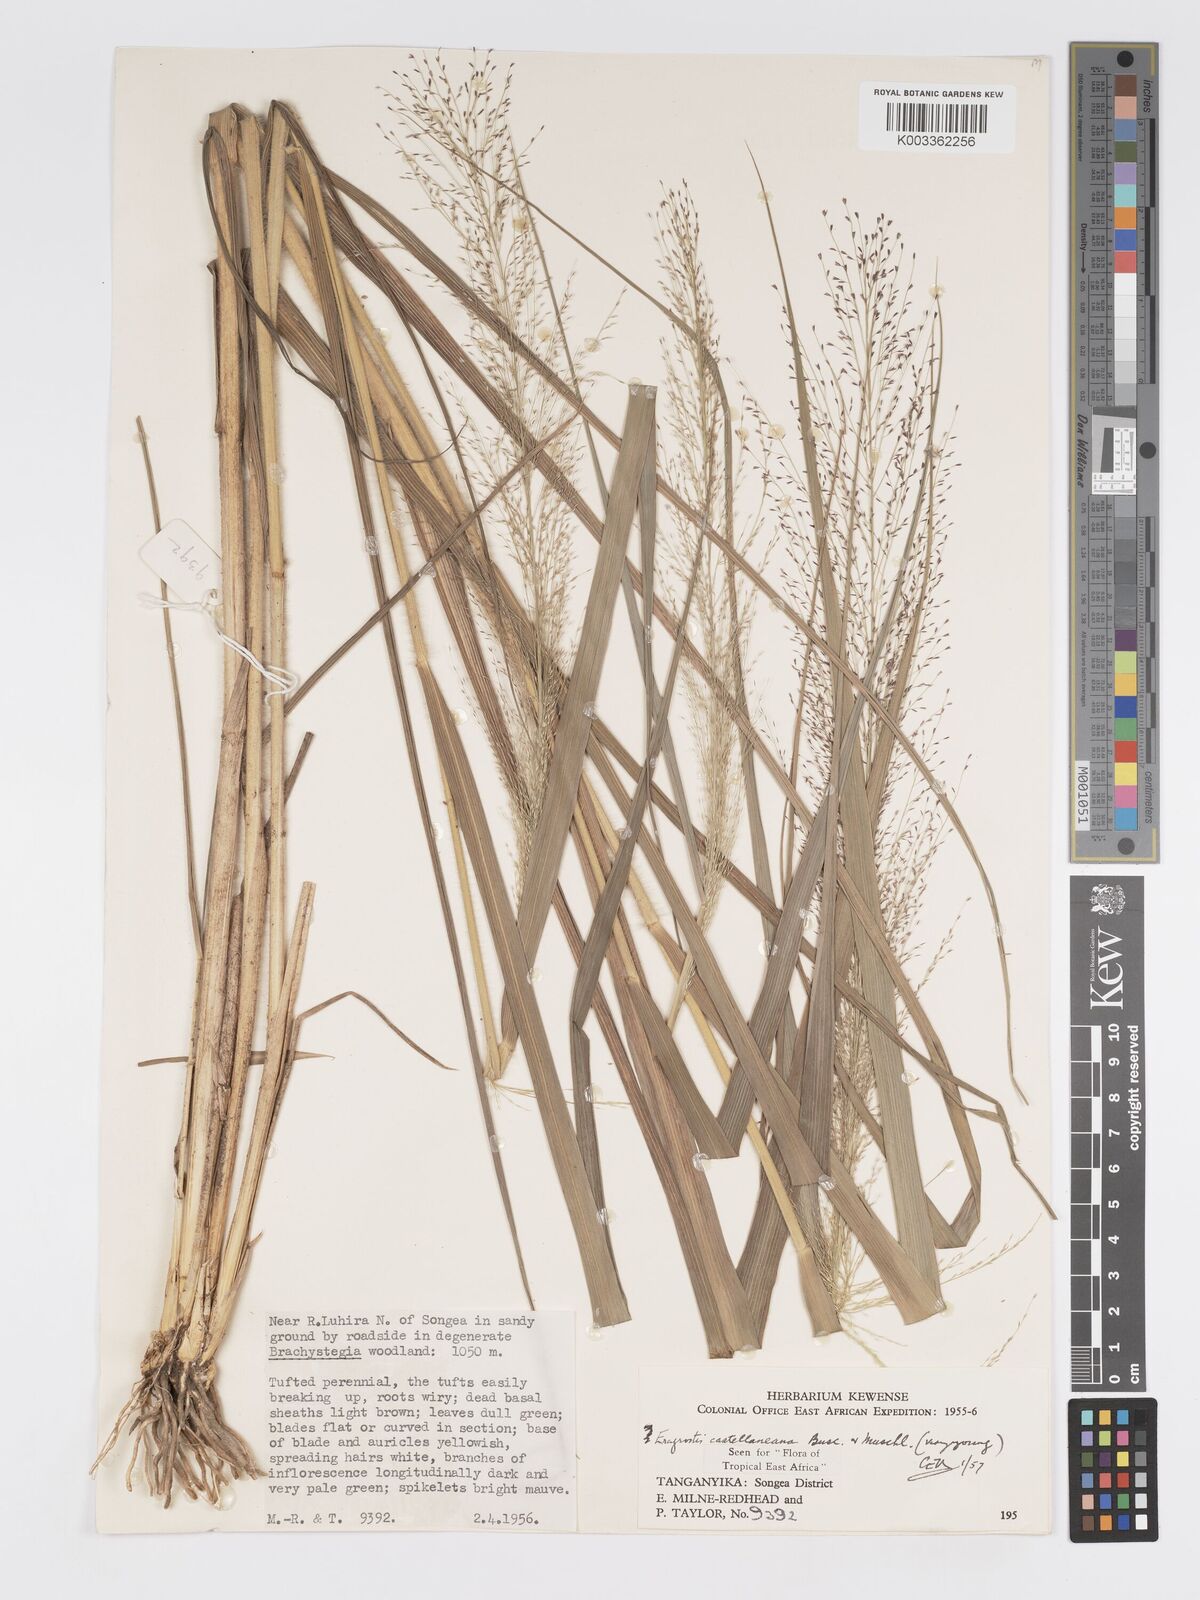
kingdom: Plantae
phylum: Tracheophyta
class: Liliopsida
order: Poales
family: Poaceae
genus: Eragrostis
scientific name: Eragrostis castellaneana
